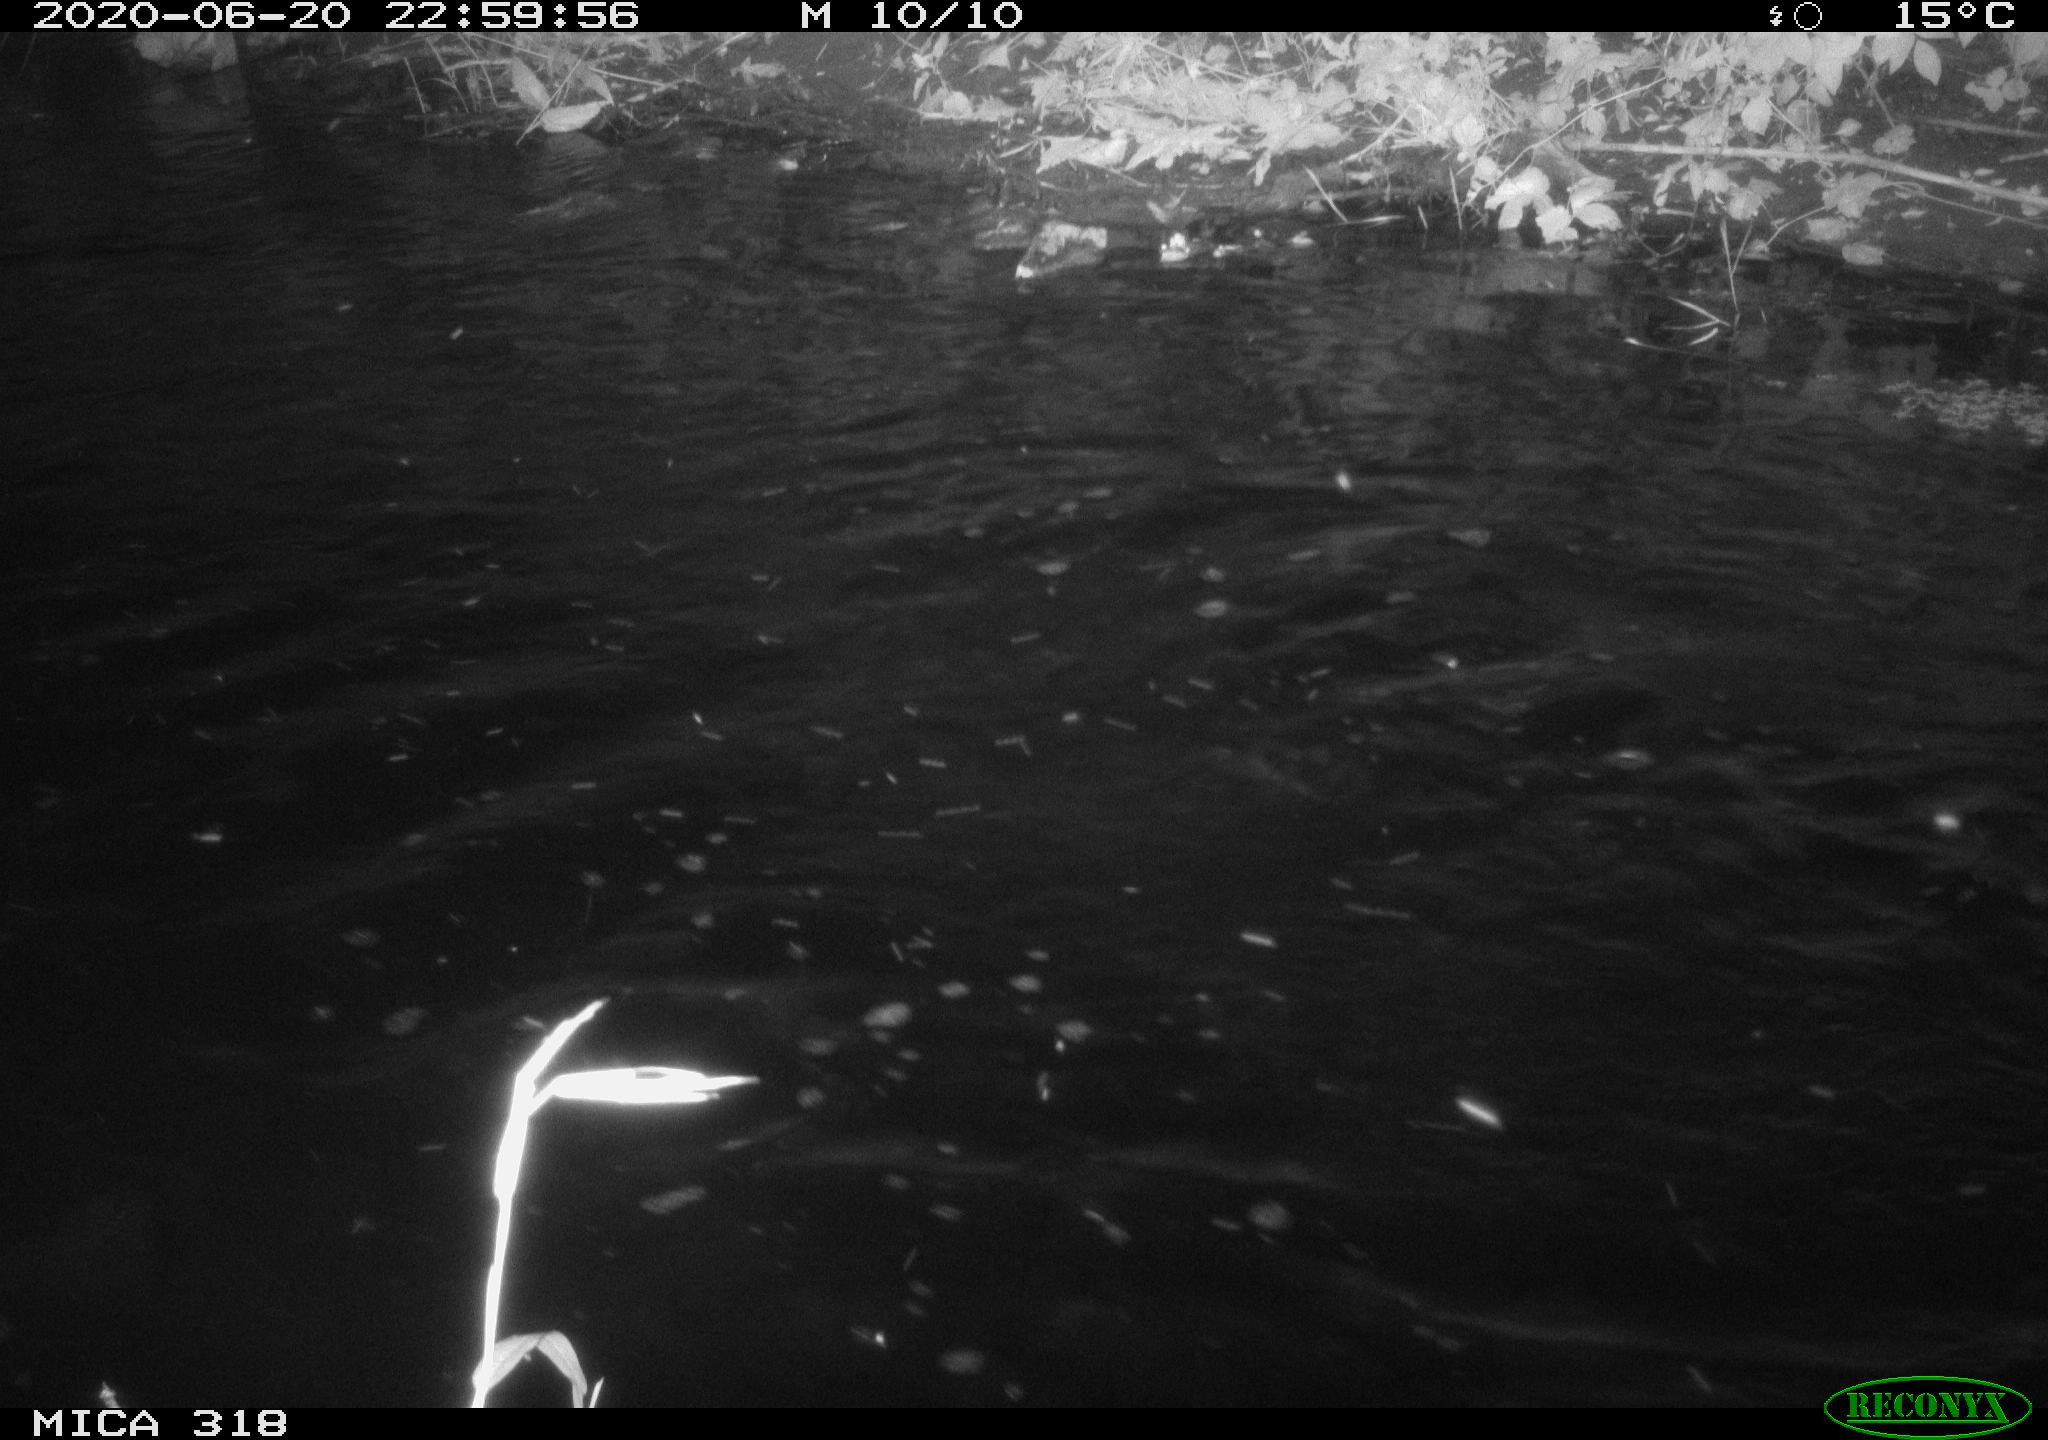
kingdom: Animalia
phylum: Chordata
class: Aves
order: Anseriformes
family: Anatidae
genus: Anas
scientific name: Anas platyrhynchos
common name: Mallard
